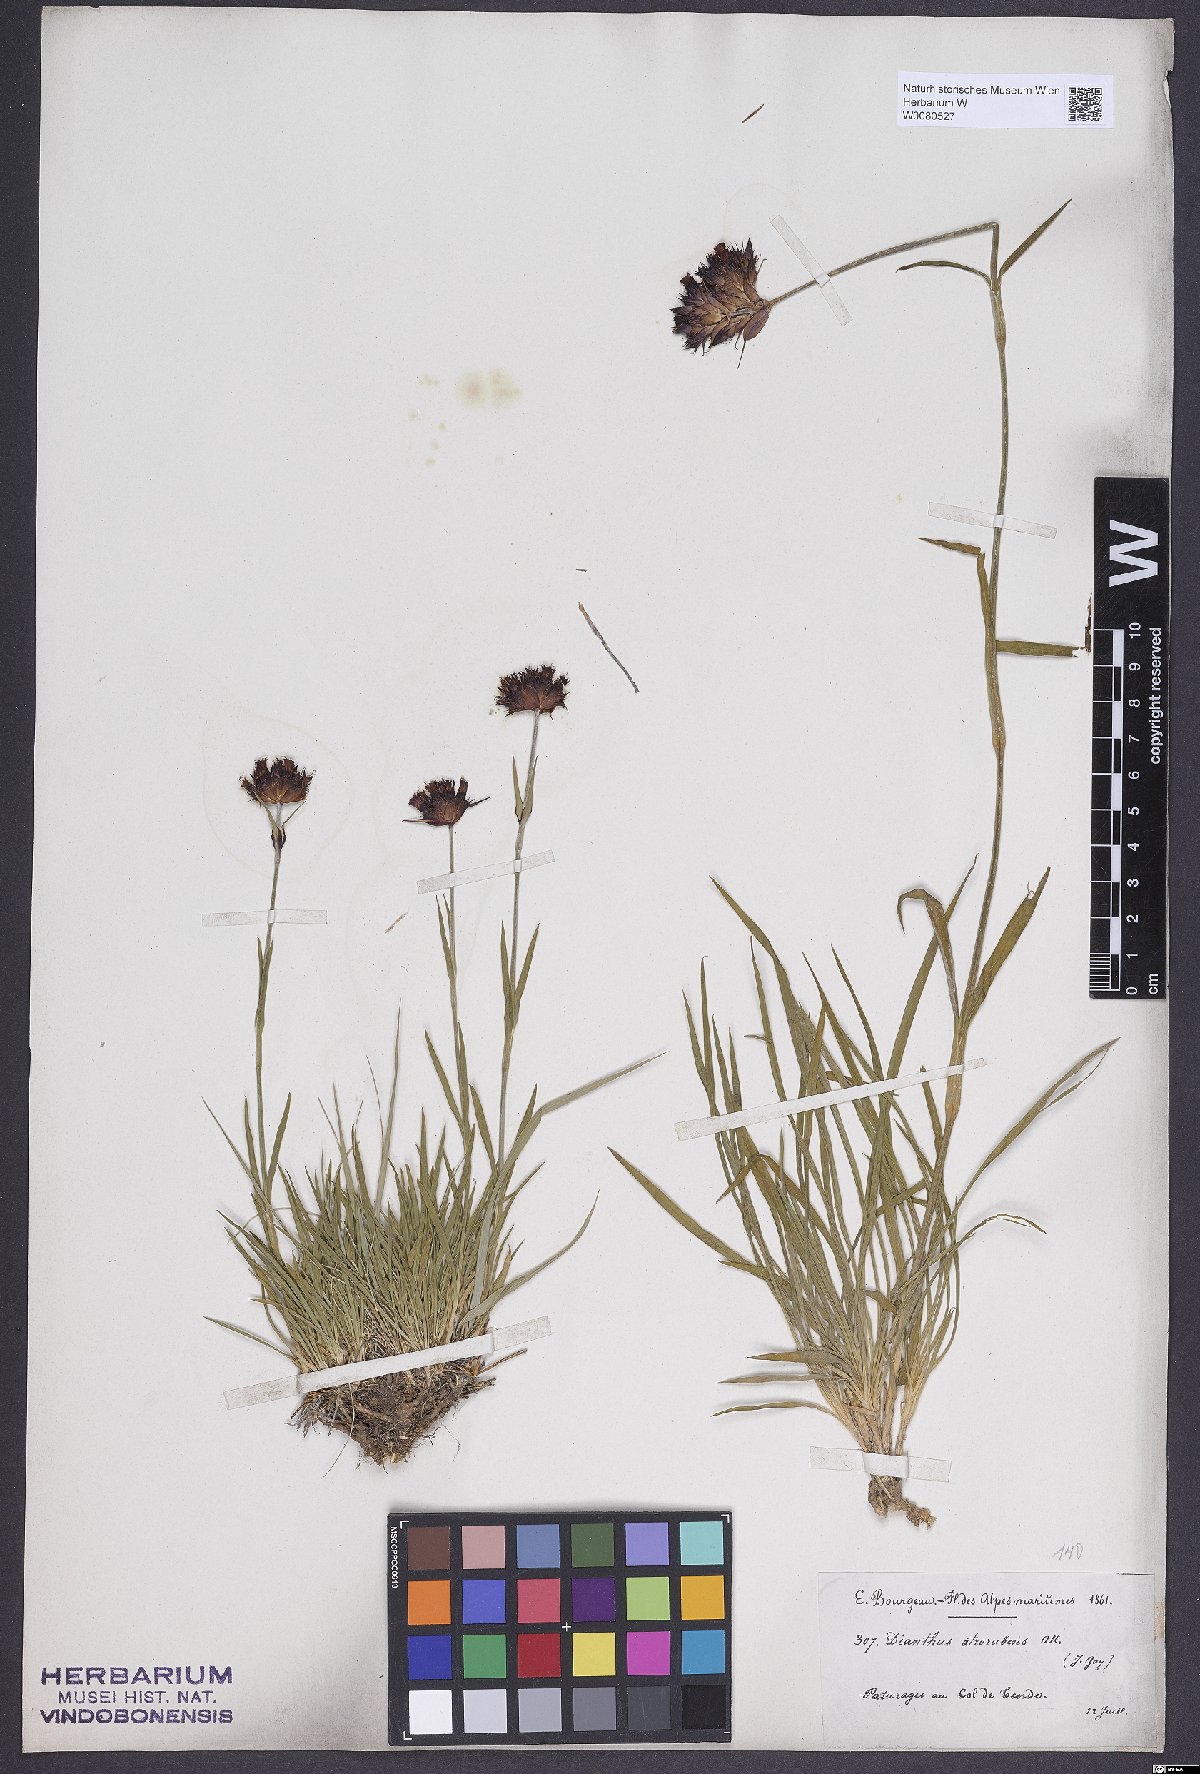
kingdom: Plantae
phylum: Tracheophyta
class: Magnoliopsida
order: Caryophyllales
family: Caryophyllaceae
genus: Dianthus
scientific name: Dianthus carthusianorum
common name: Carthusian pink
